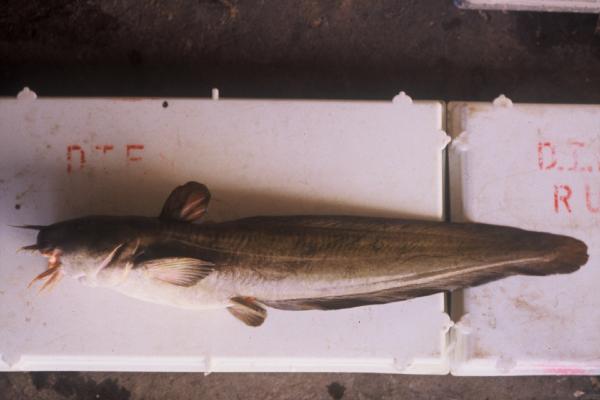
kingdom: Animalia
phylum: Chordata
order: Siluriformes
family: Plotosidae
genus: Plotosus
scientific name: Plotosus nkunga
